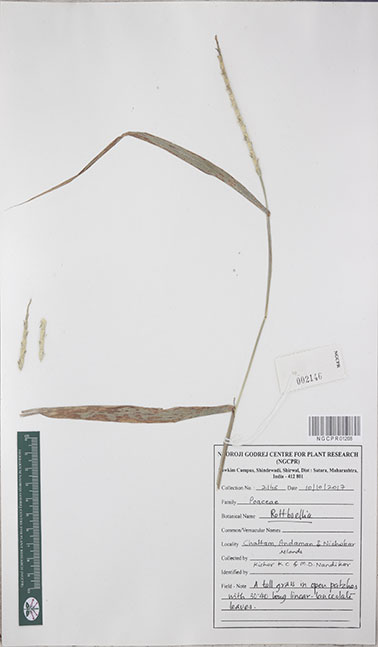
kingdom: Plantae
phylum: Tracheophyta
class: Liliopsida
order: Poales
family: Poaceae
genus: Rottboellia
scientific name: Rottboellia
